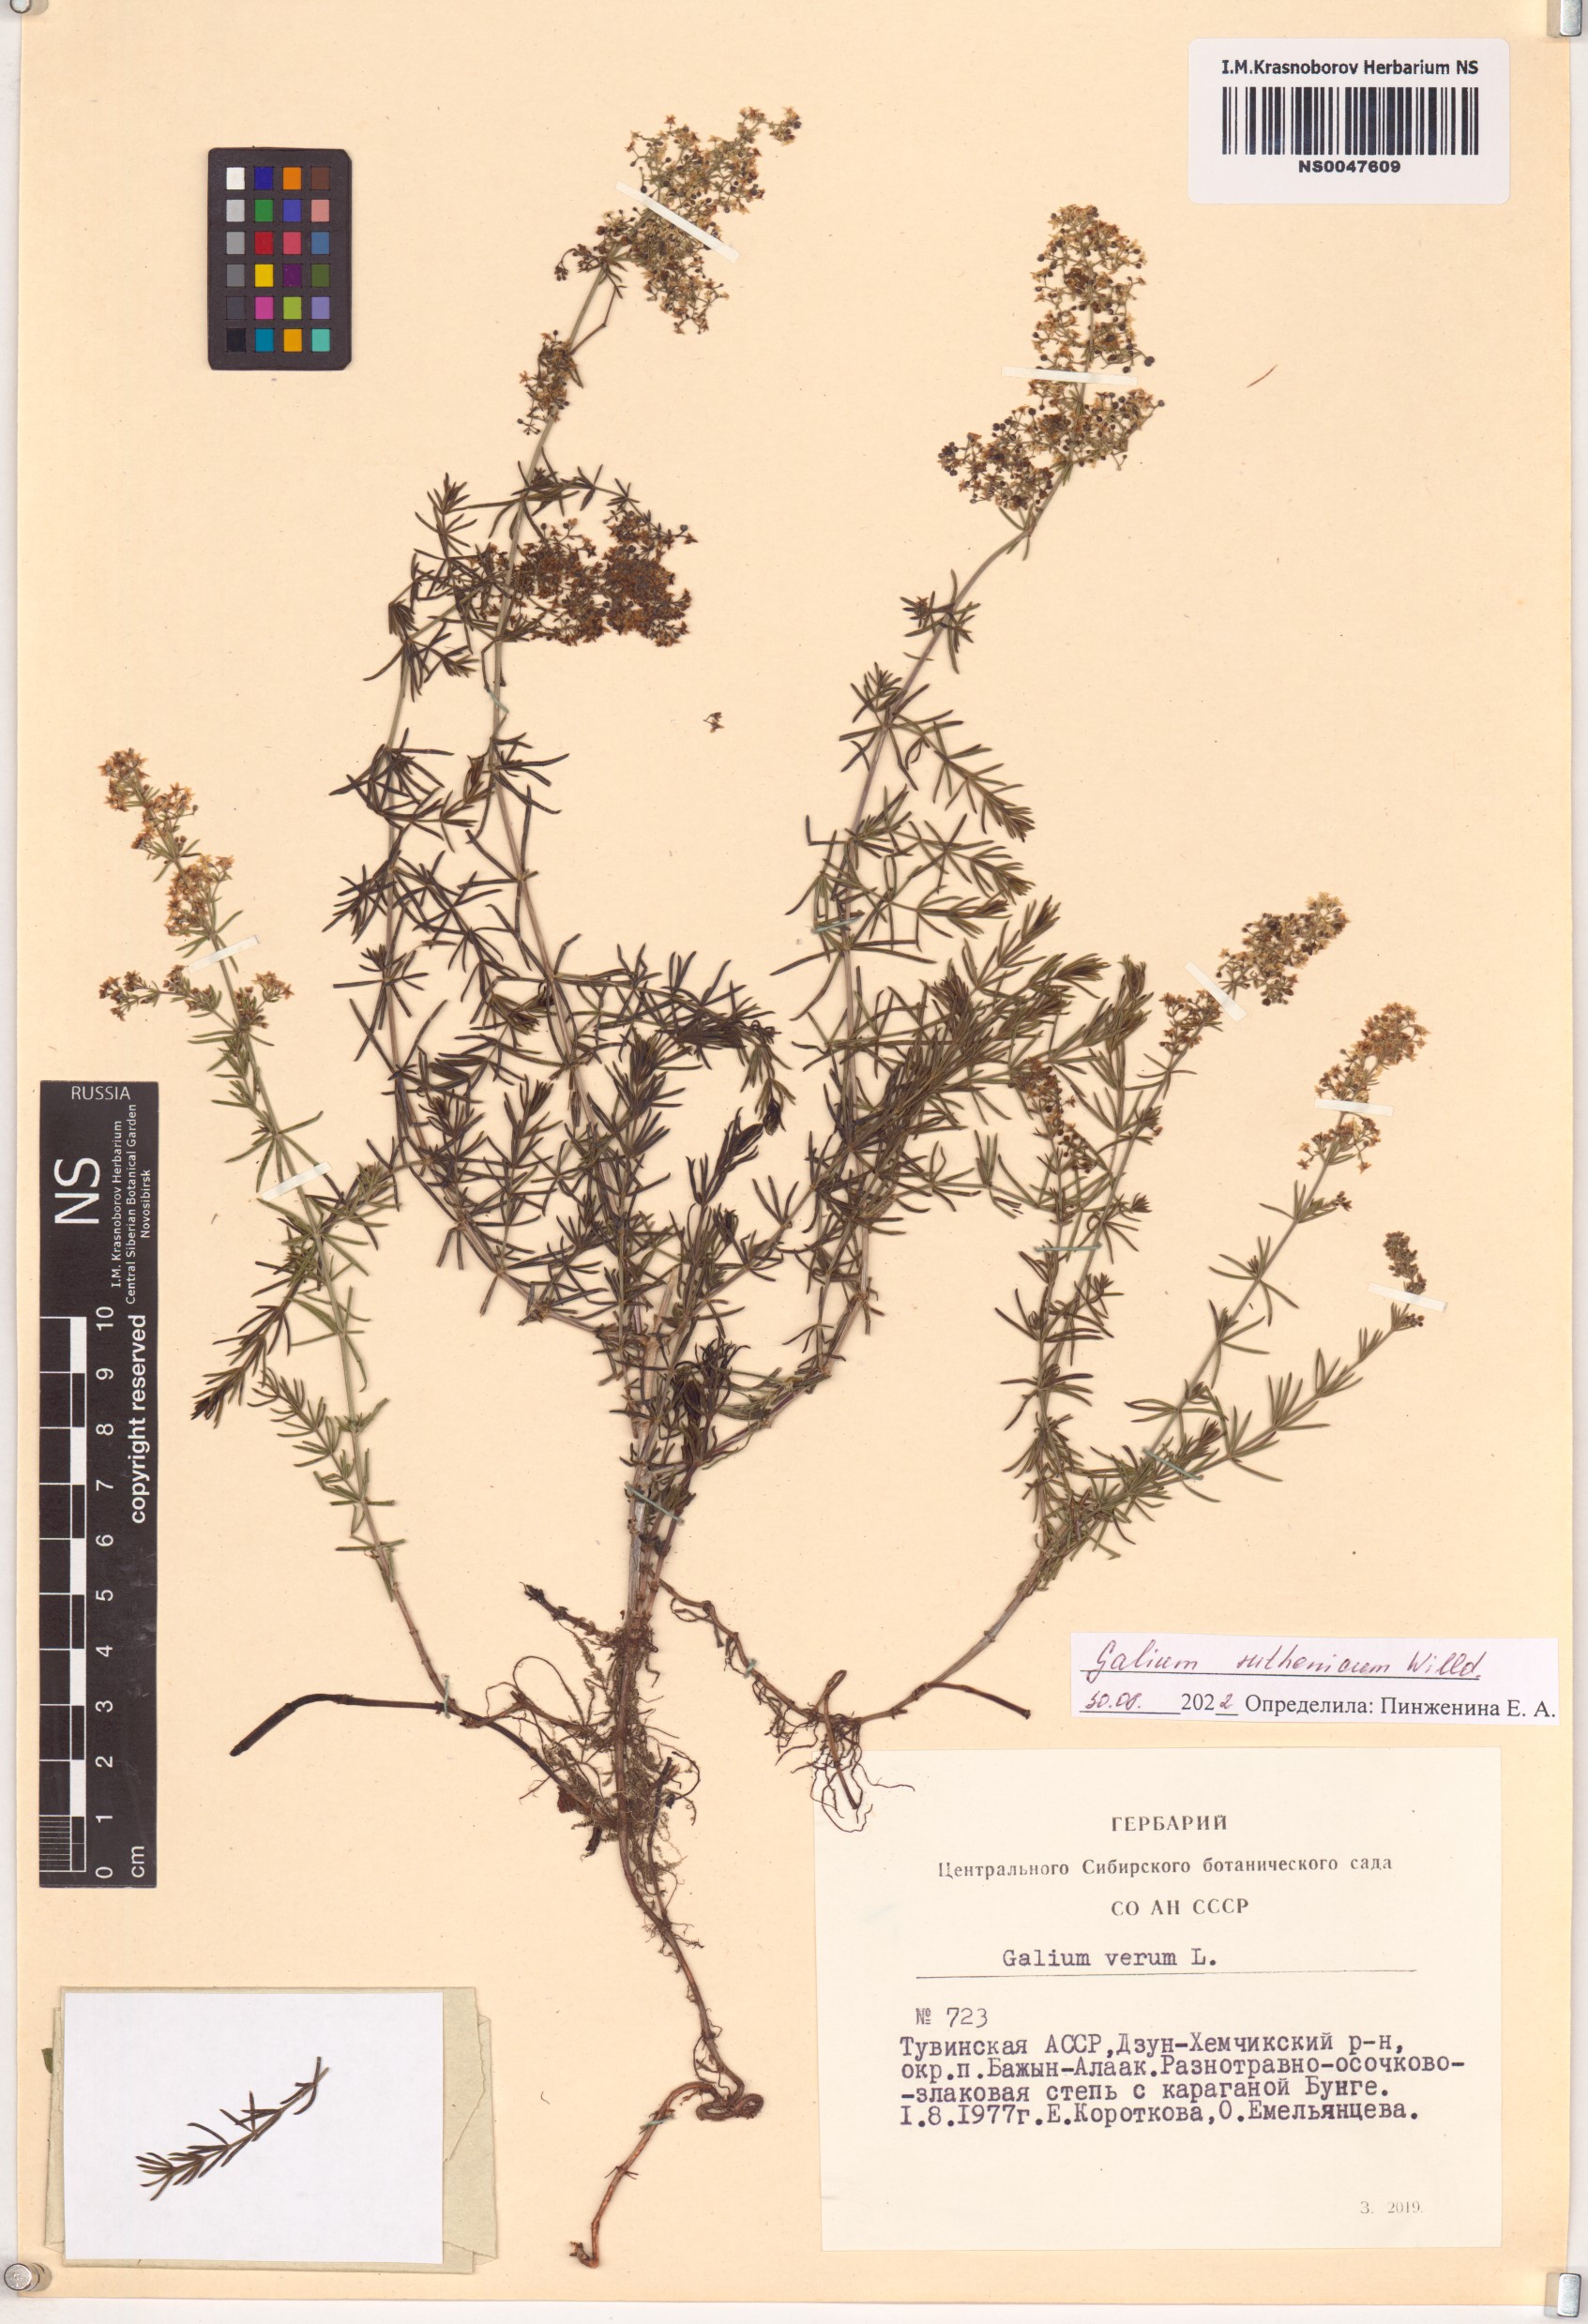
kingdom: Plantae
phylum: Tracheophyta
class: Magnoliopsida
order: Gentianales
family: Rubiaceae
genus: Galium
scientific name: Galium verum
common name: Lady's bedstraw
